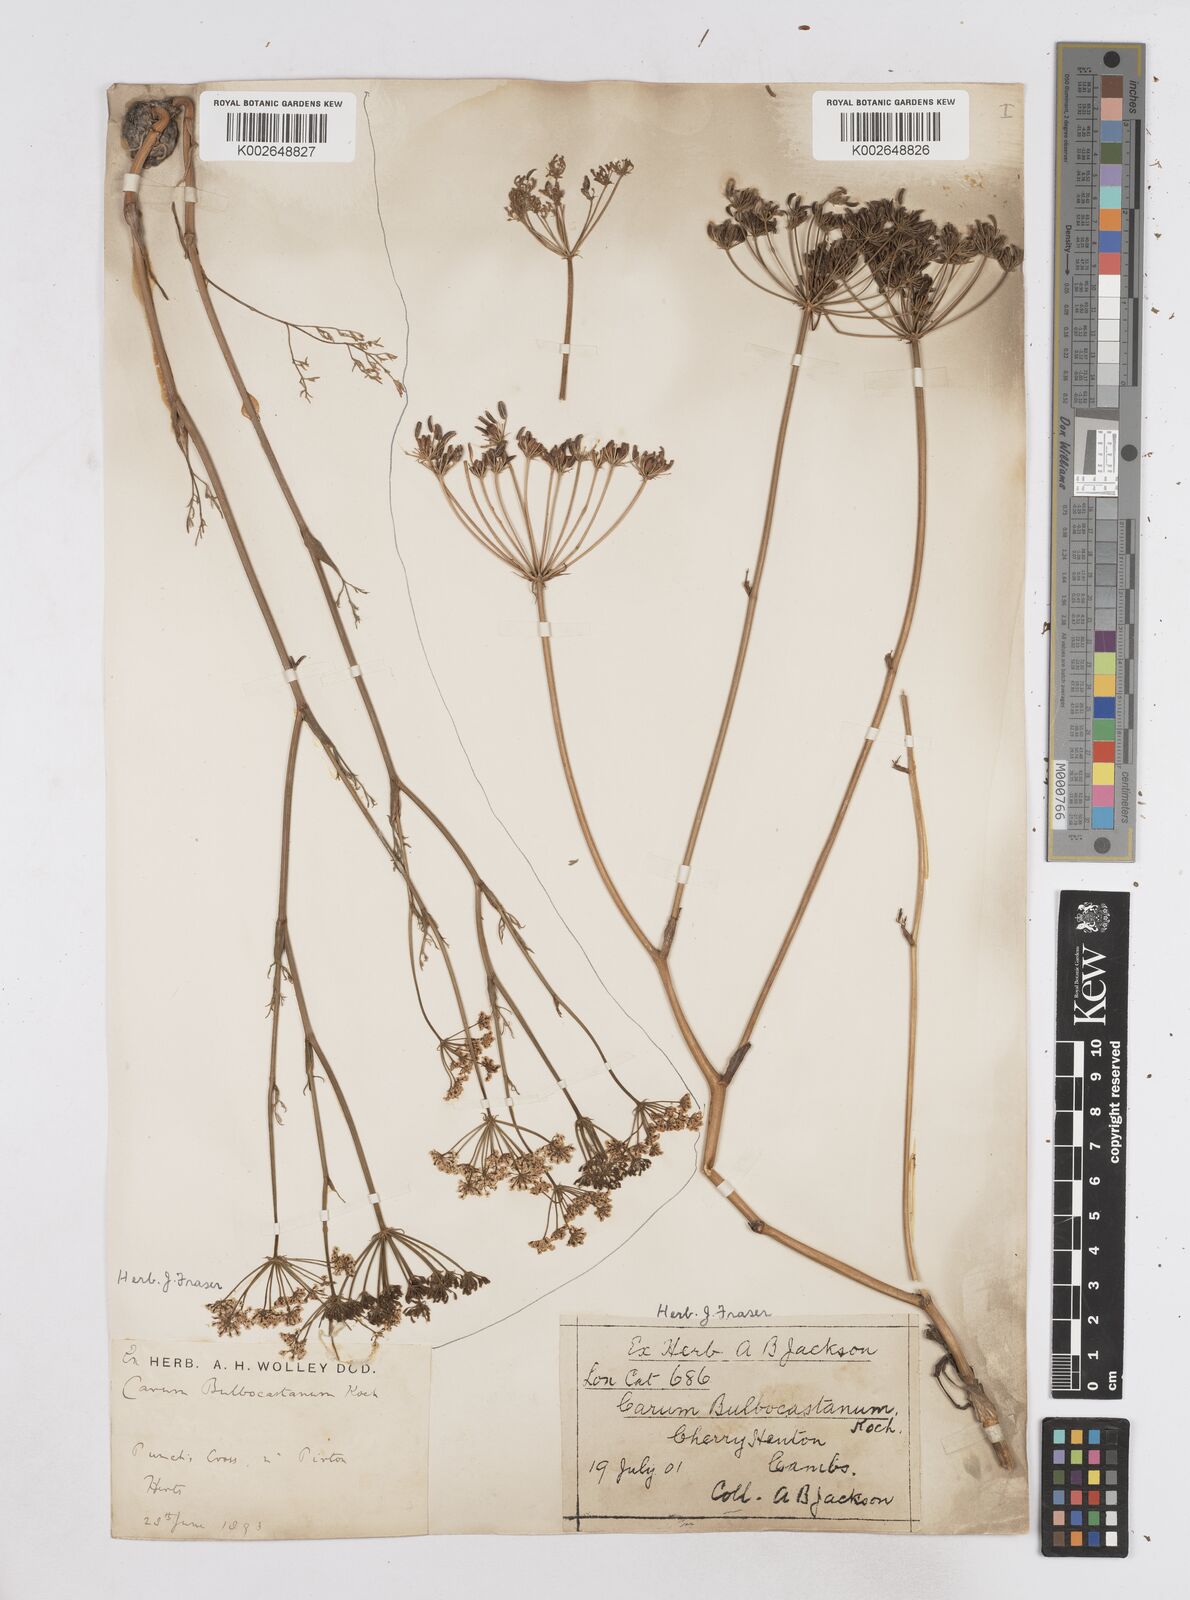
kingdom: Plantae
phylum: Tracheophyta
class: Magnoliopsida
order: Apiales
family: Apiaceae
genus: Bunium
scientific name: Bunium bulbocastanum
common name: Great pignut
